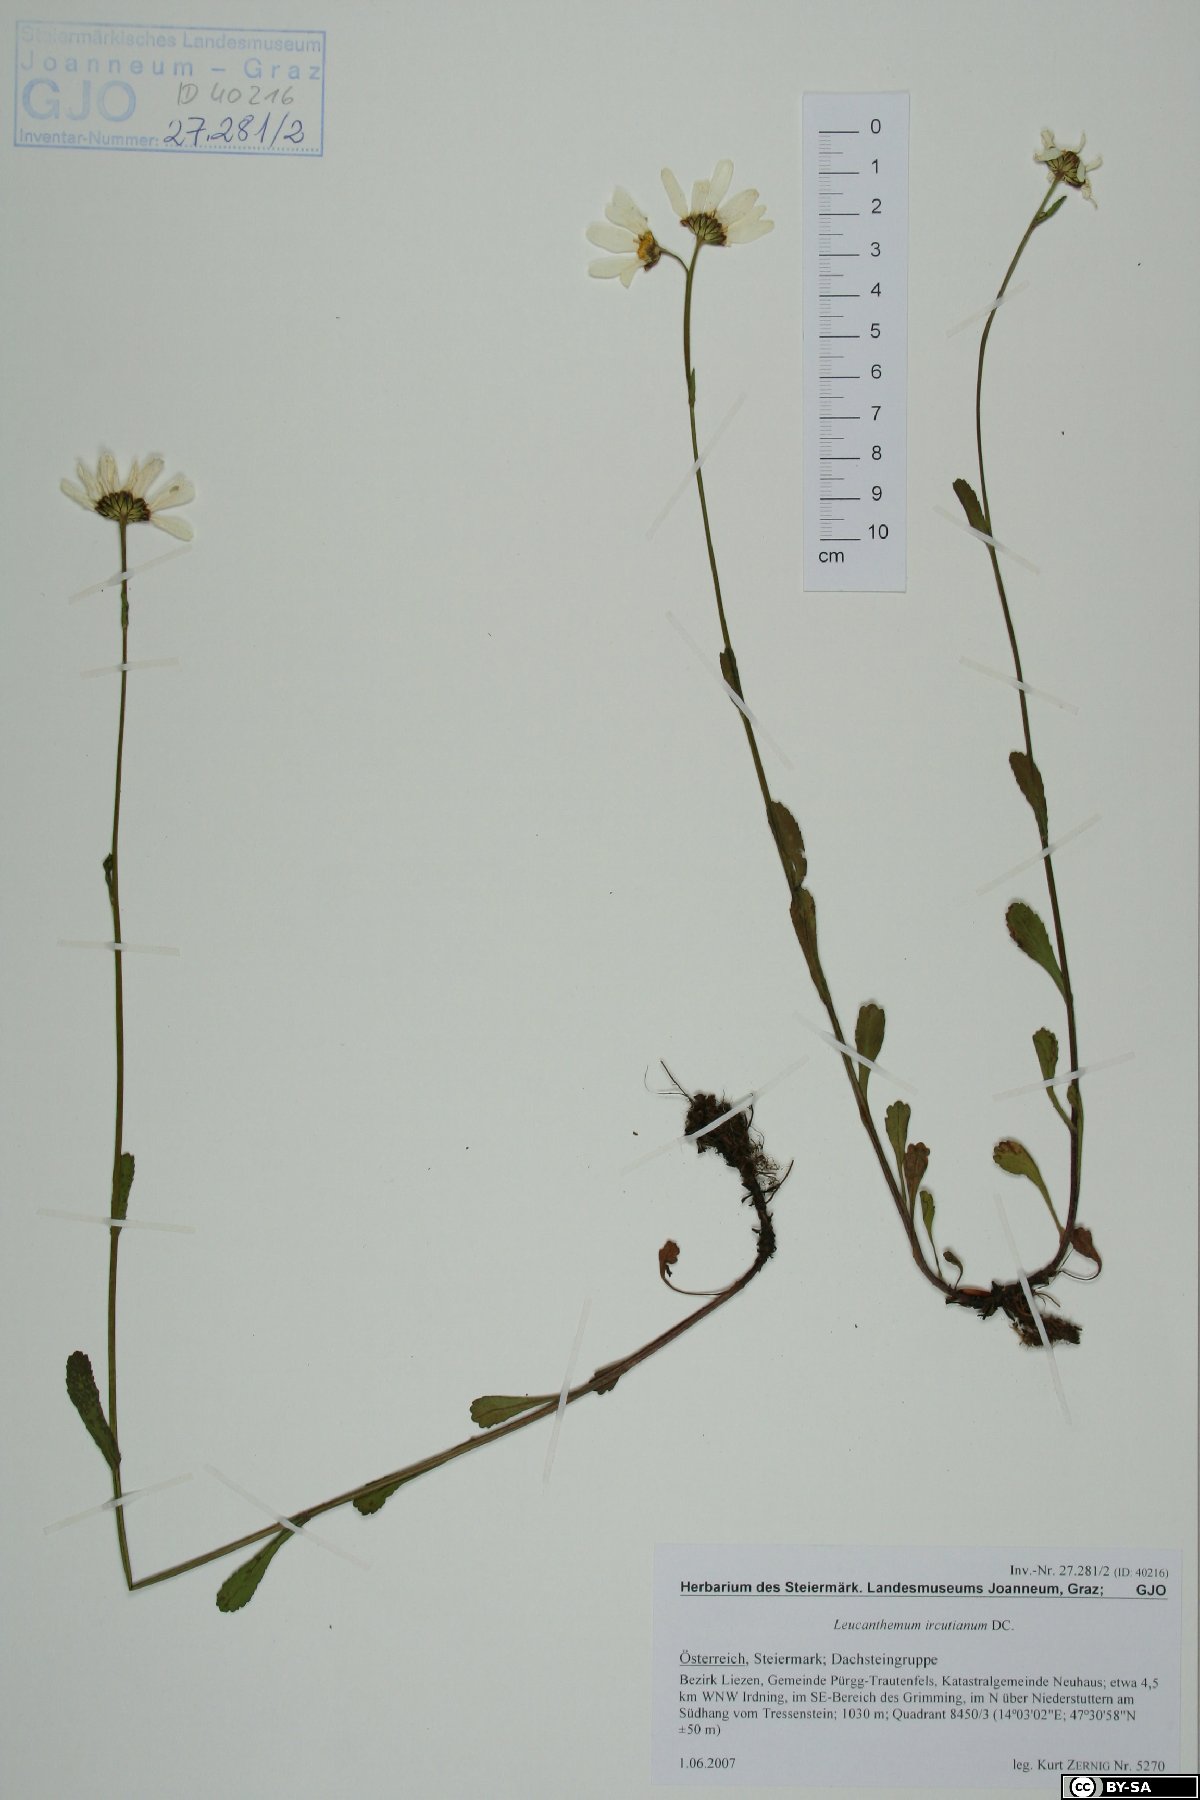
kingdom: Plantae
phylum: Tracheophyta
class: Magnoliopsida
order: Asterales
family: Asteraceae
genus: Leucanthemum
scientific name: Leucanthemum ircutianum
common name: Daisy
